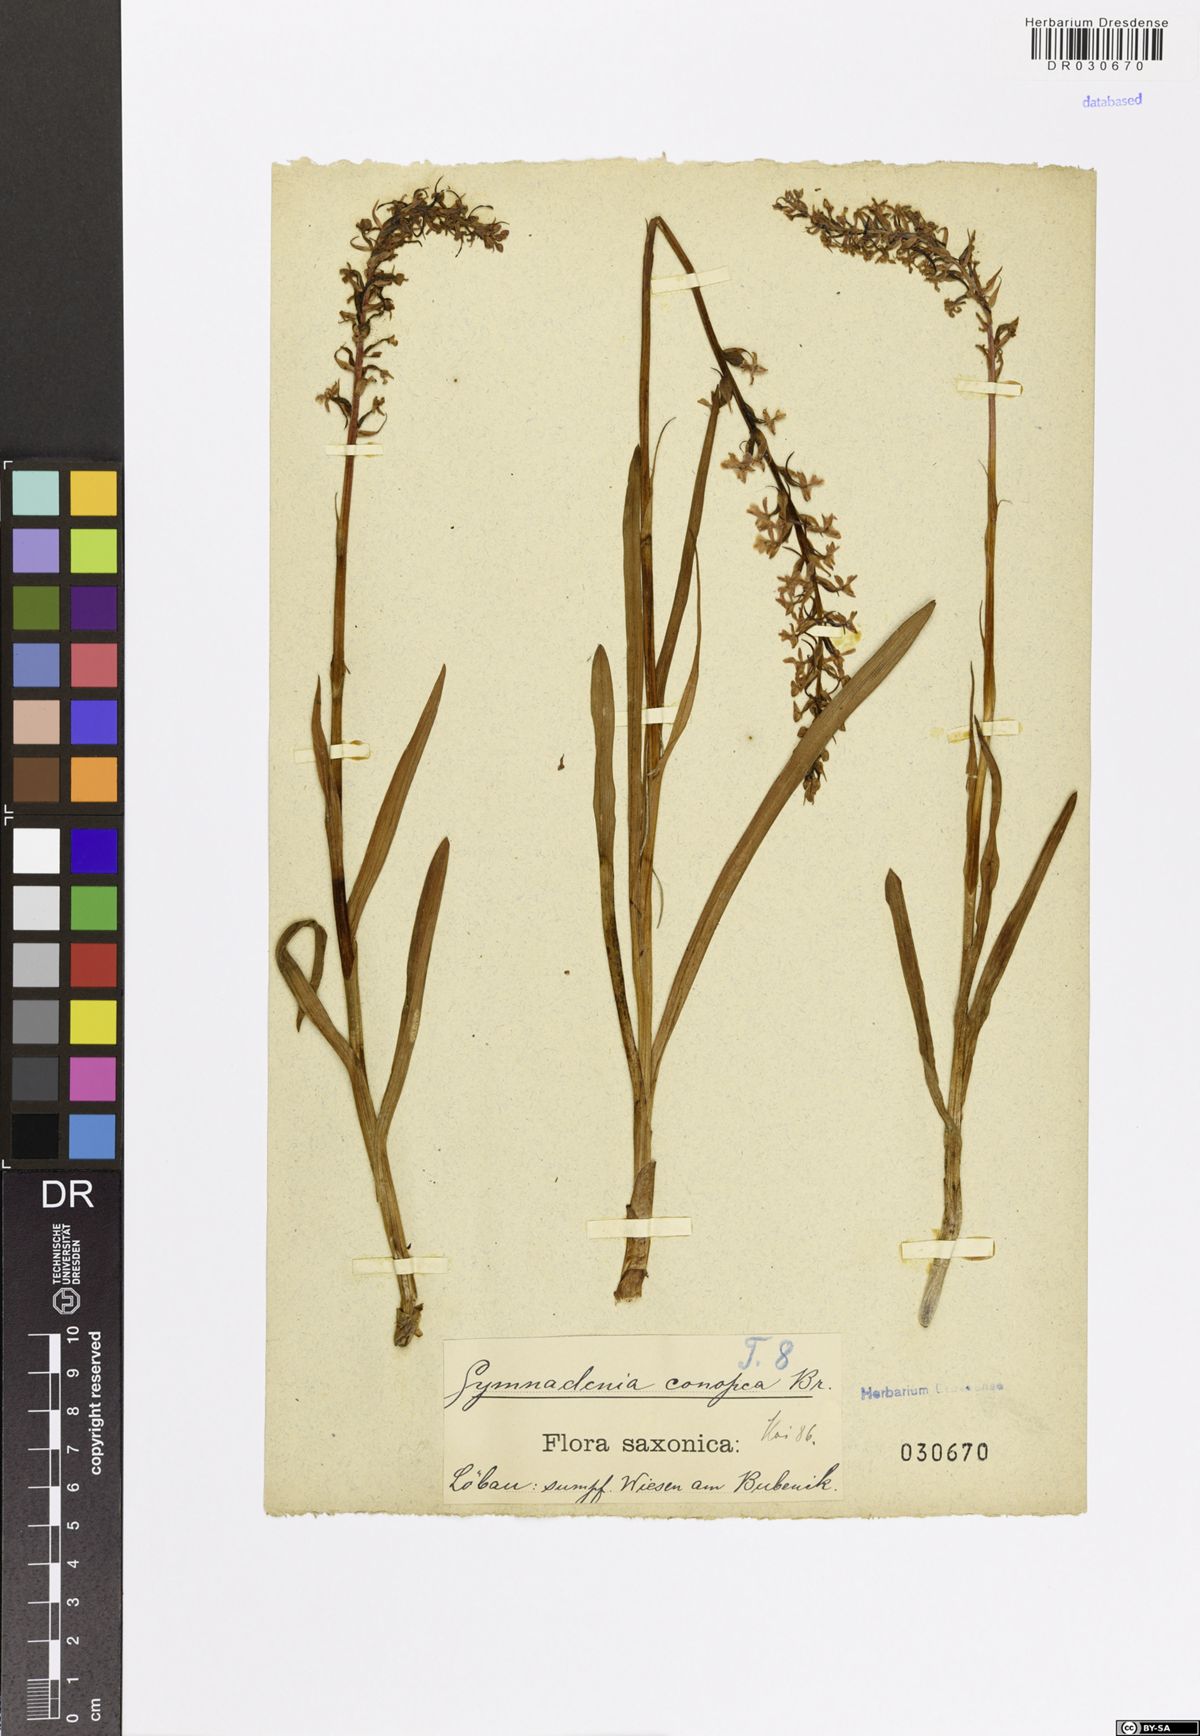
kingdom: Plantae
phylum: Tracheophyta
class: Liliopsida
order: Asparagales
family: Orchidaceae
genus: Gymnadenia
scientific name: Gymnadenia conopsea
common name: Fragrant orchid
